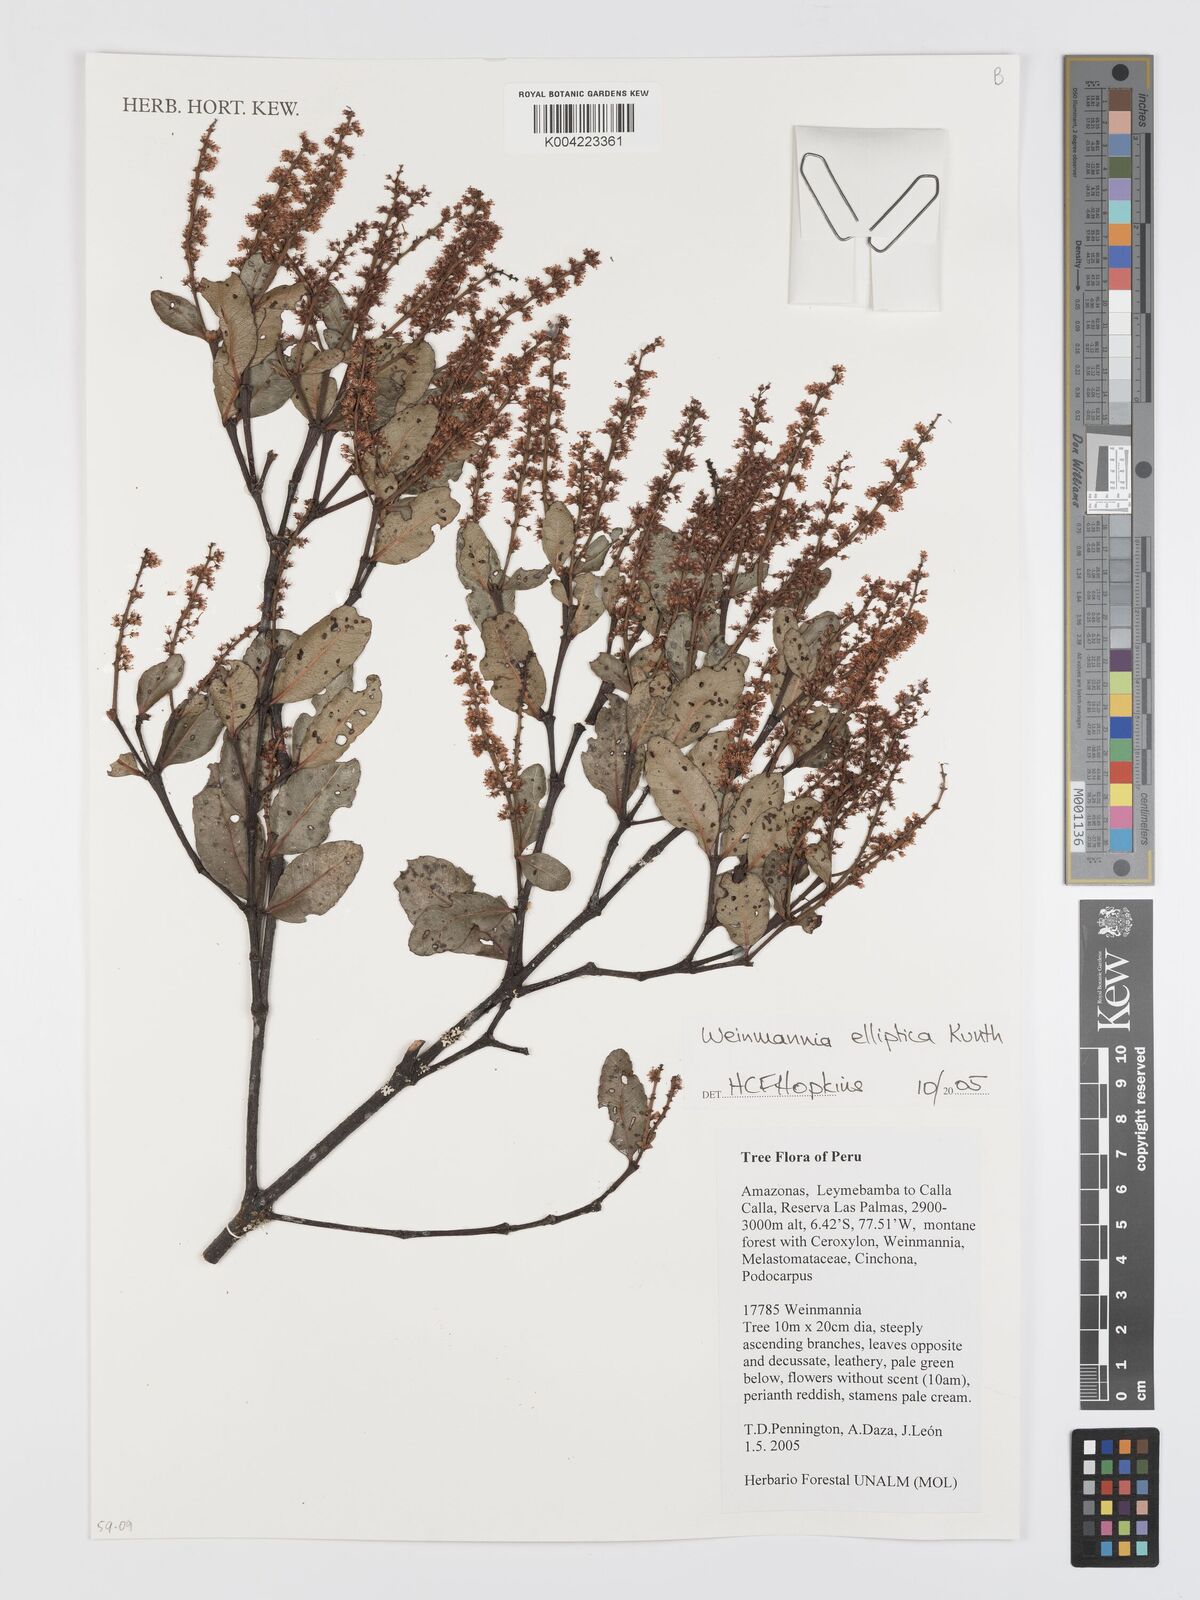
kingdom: Plantae
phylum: Tracheophyta
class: Magnoliopsida
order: Oxalidales
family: Cunoniaceae
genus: Weinmannia
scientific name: Weinmannia elliptica
